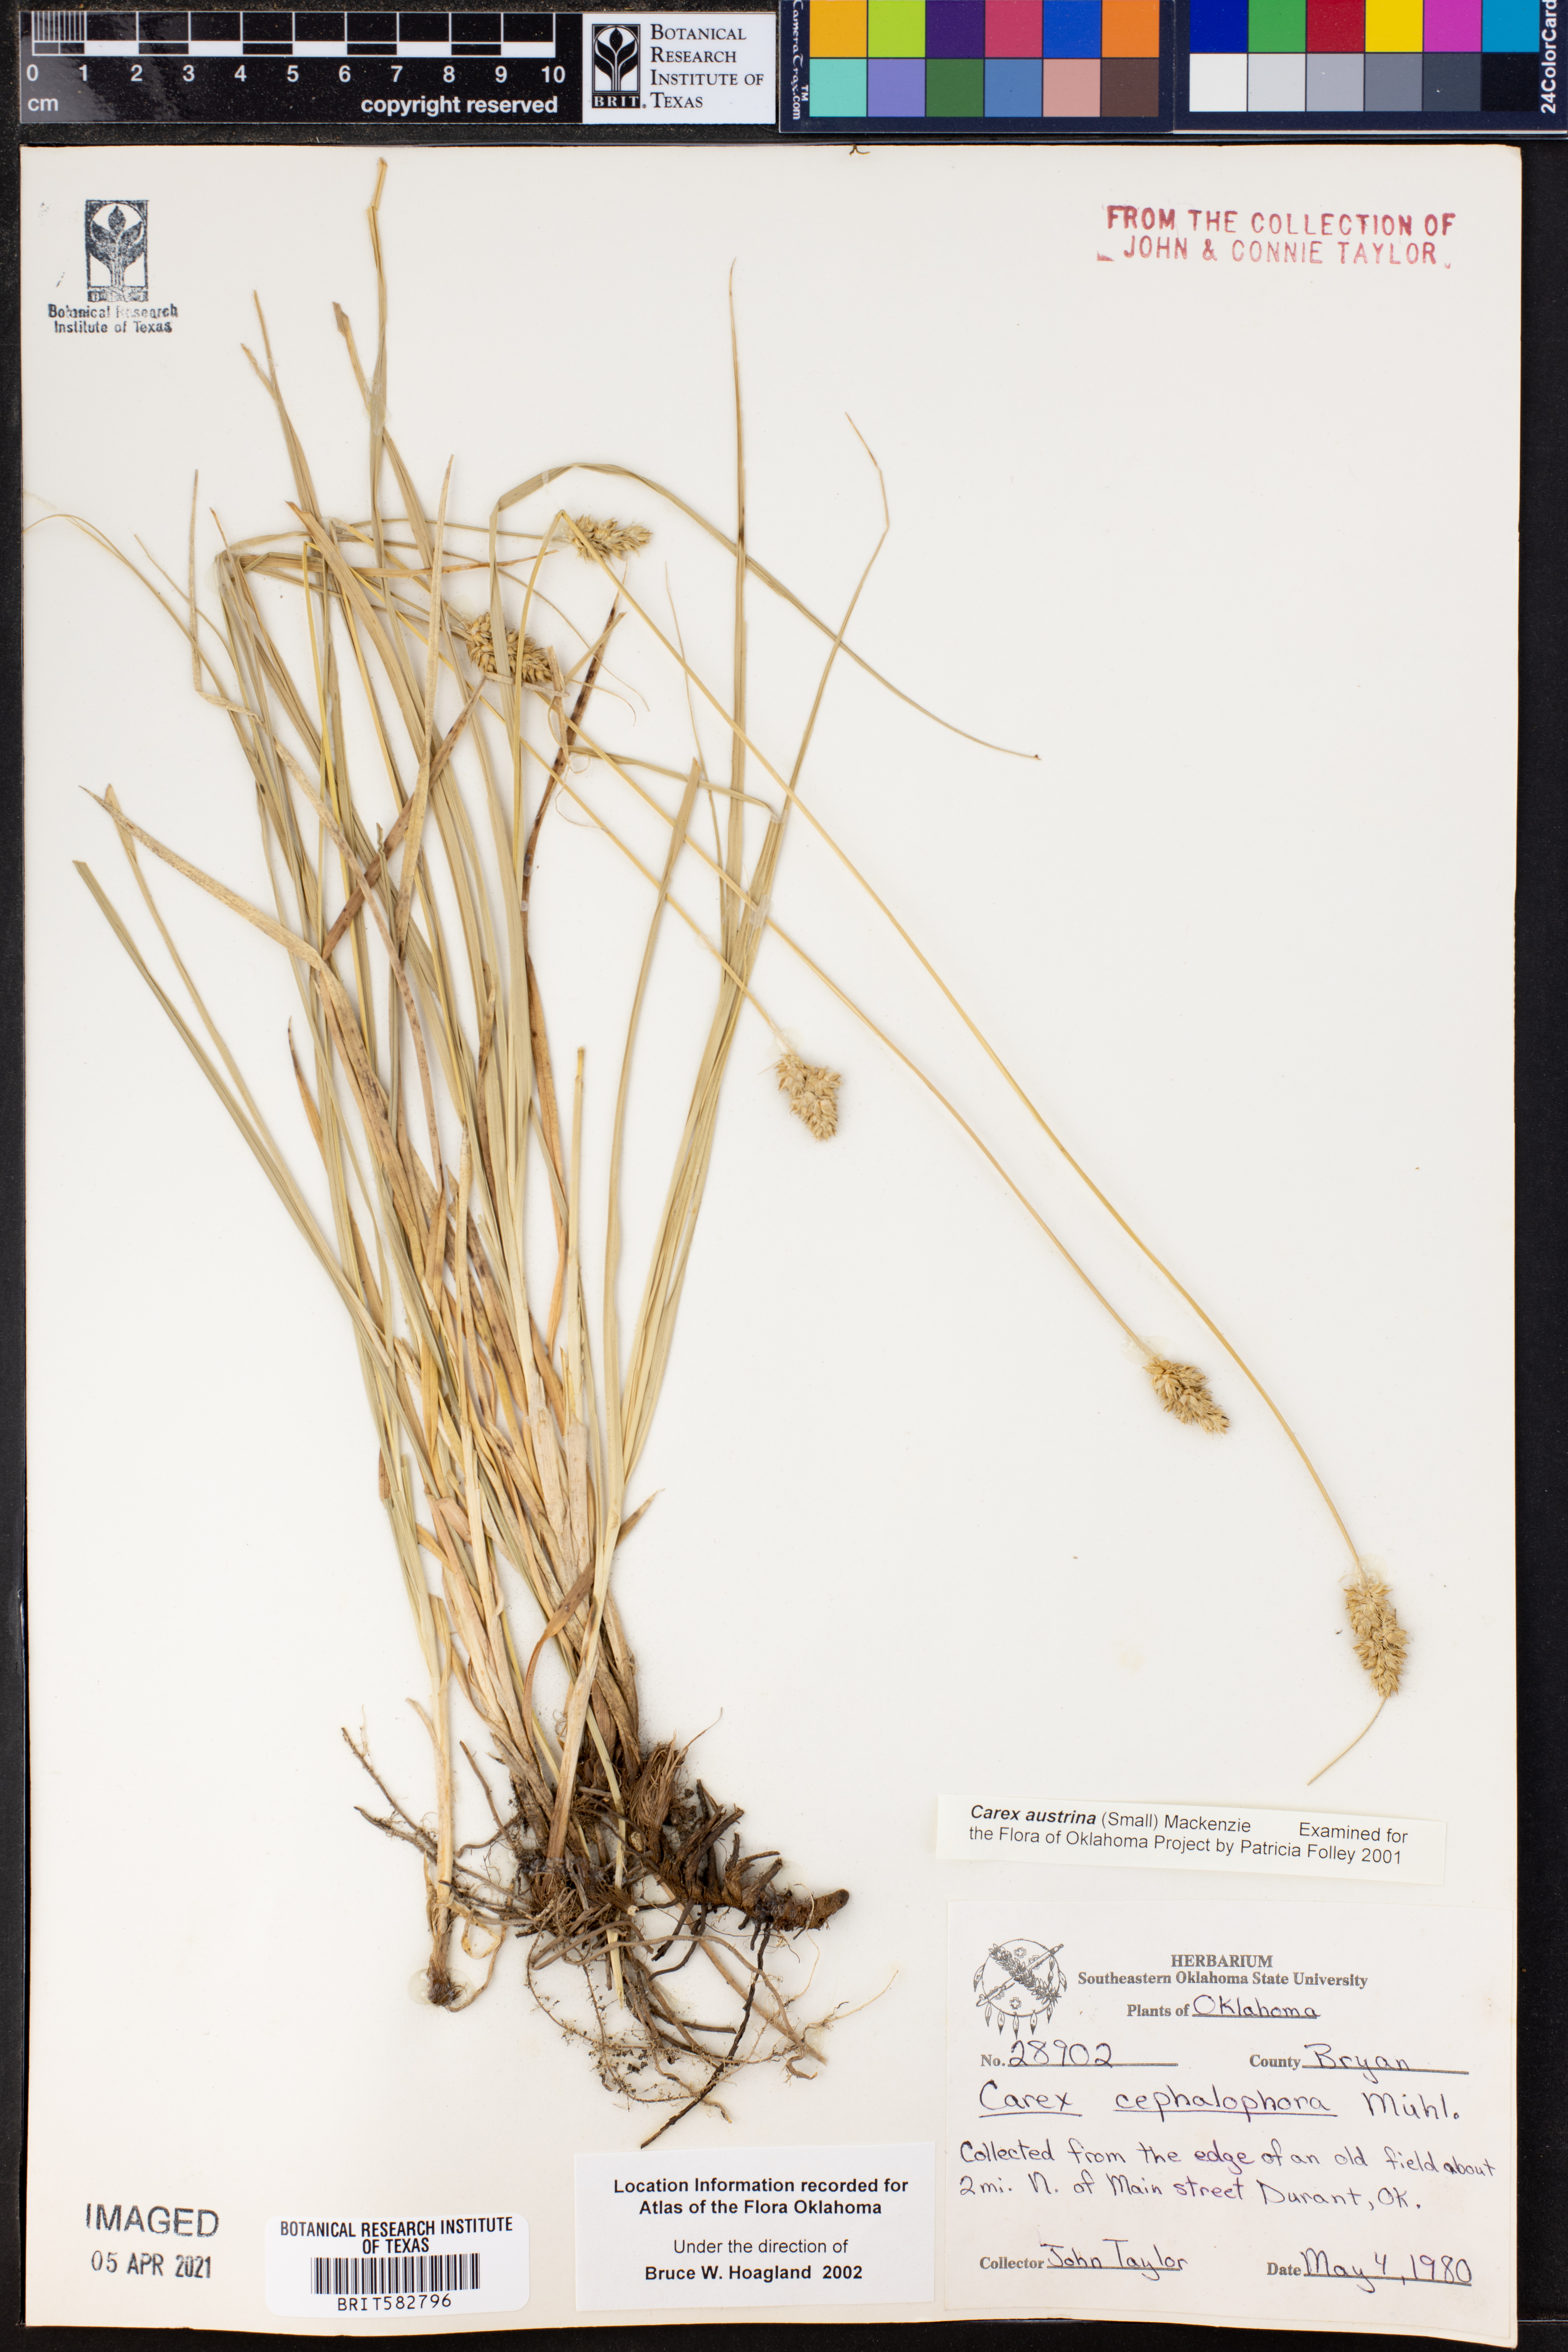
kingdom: Plantae
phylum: Tracheophyta
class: Liliopsida
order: Poales
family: Cyperaceae
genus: Carex
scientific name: Carex austrina
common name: Southern sedge
